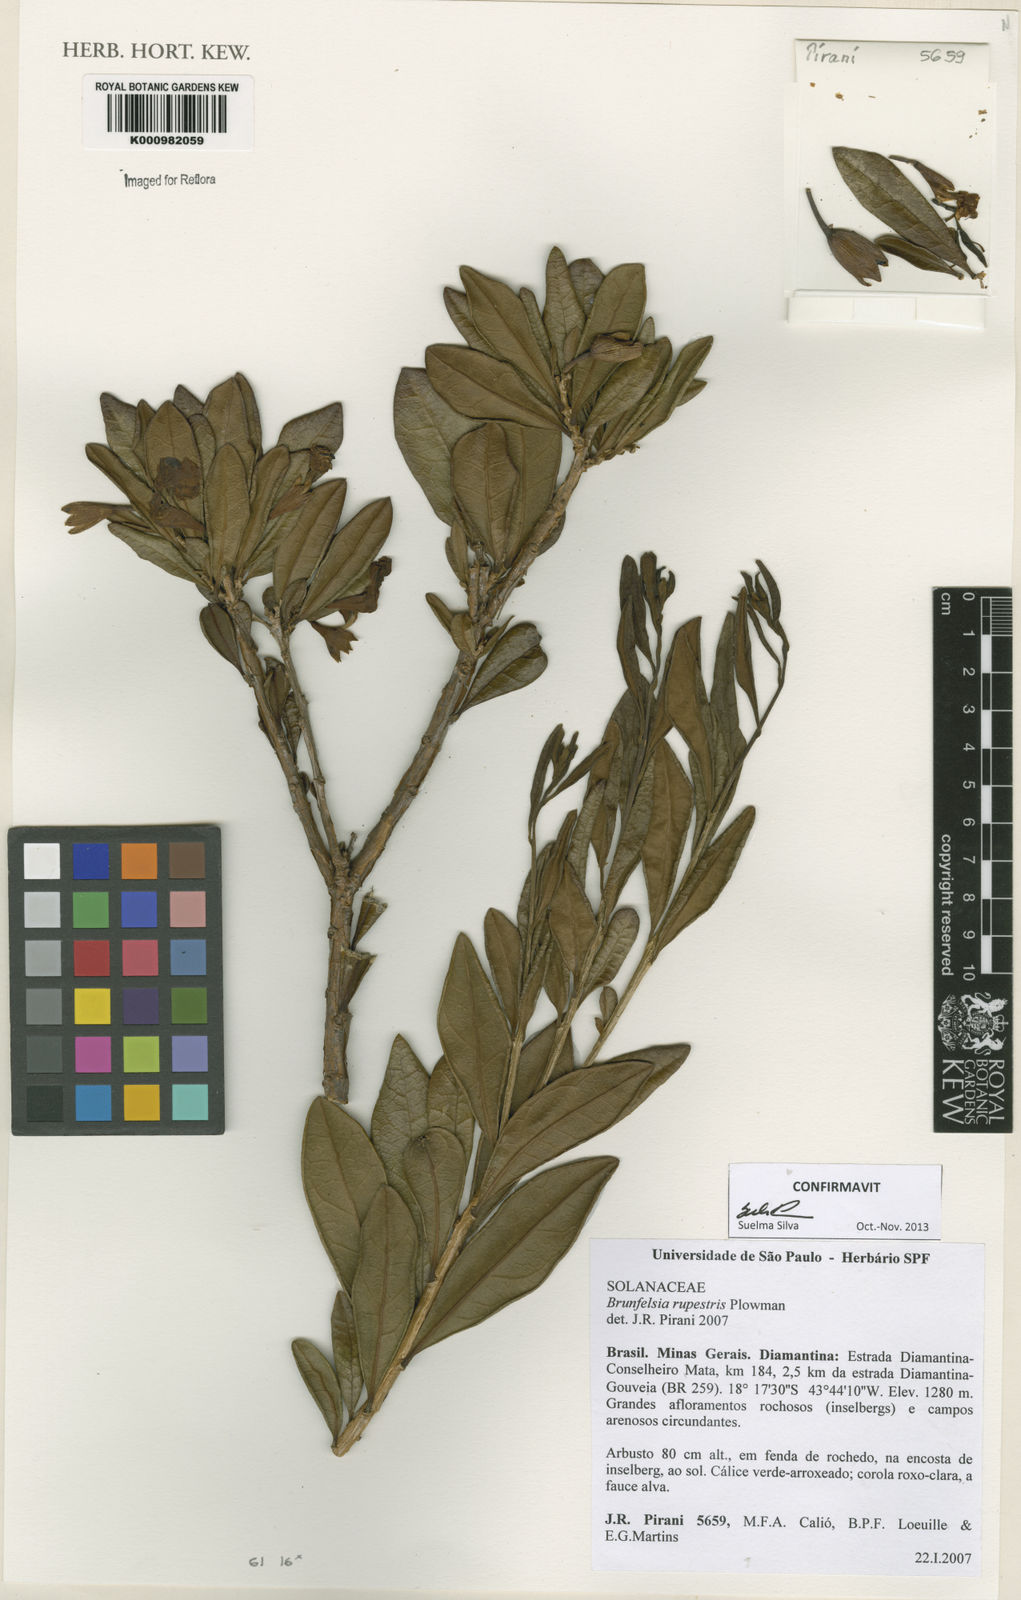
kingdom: Plantae
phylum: Tracheophyta
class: Magnoliopsida
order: Solanales
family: Solanaceae
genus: Brunfelsia
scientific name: Brunfelsia rupestris
